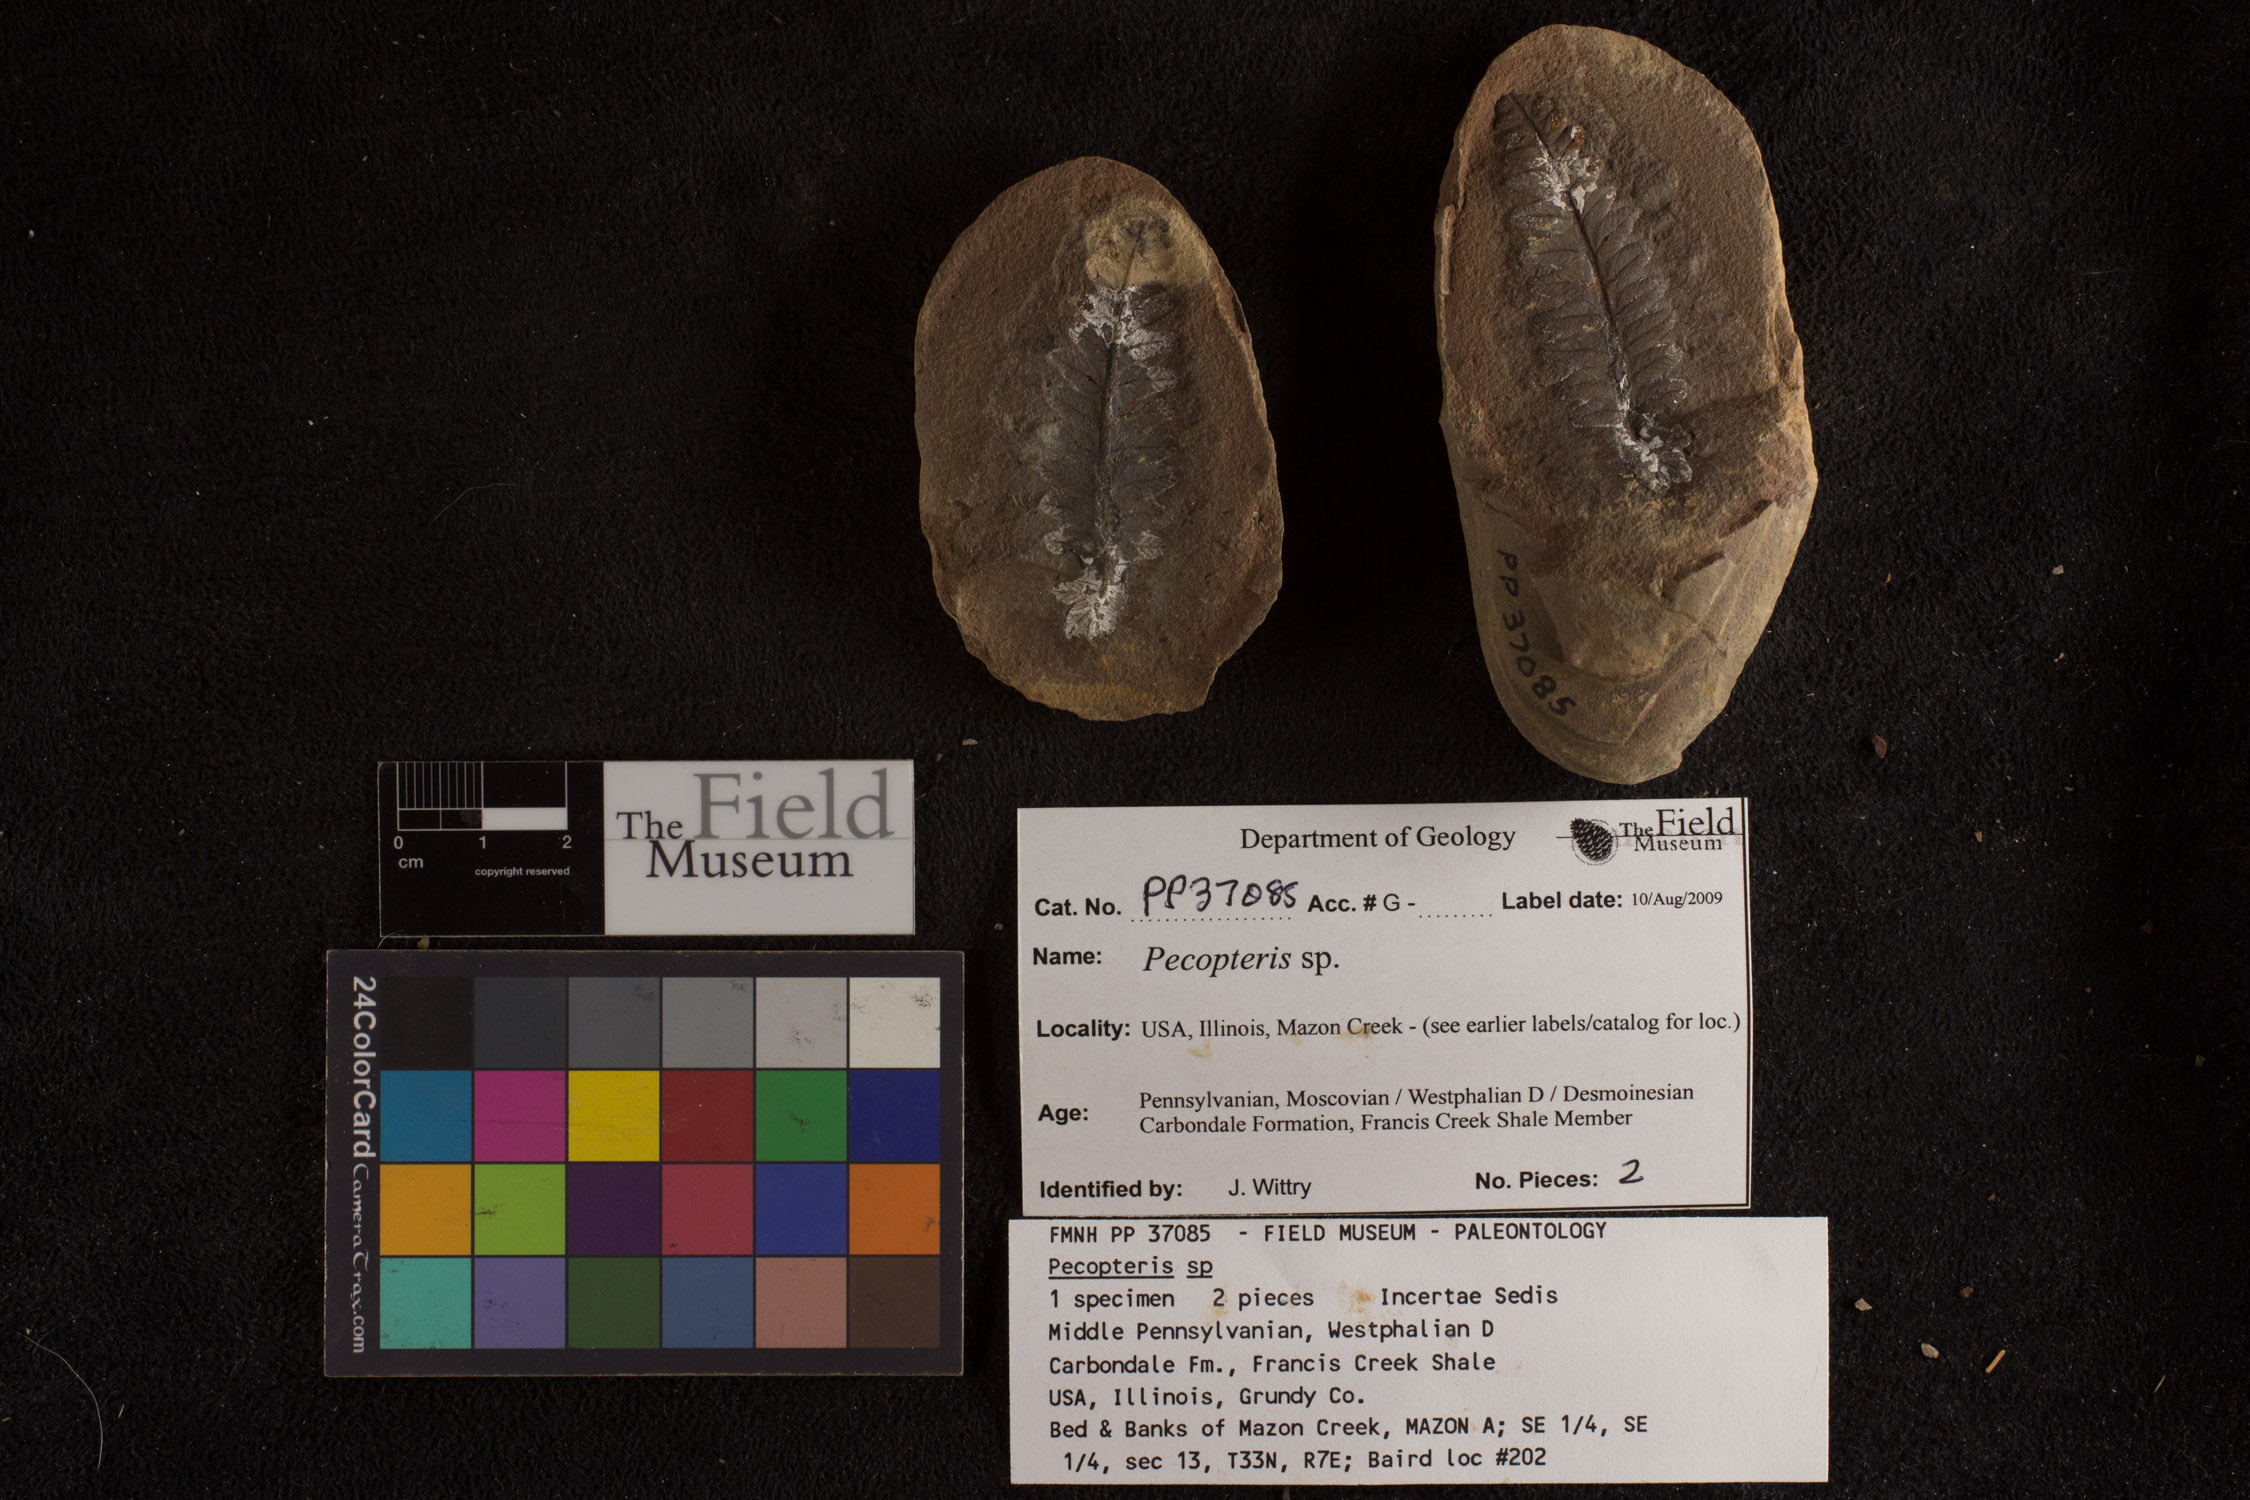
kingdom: Plantae
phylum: Tracheophyta
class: Polypodiopsida
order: Marattiales
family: Asterothecaceae
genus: Pecopteris
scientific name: Pecopteris
